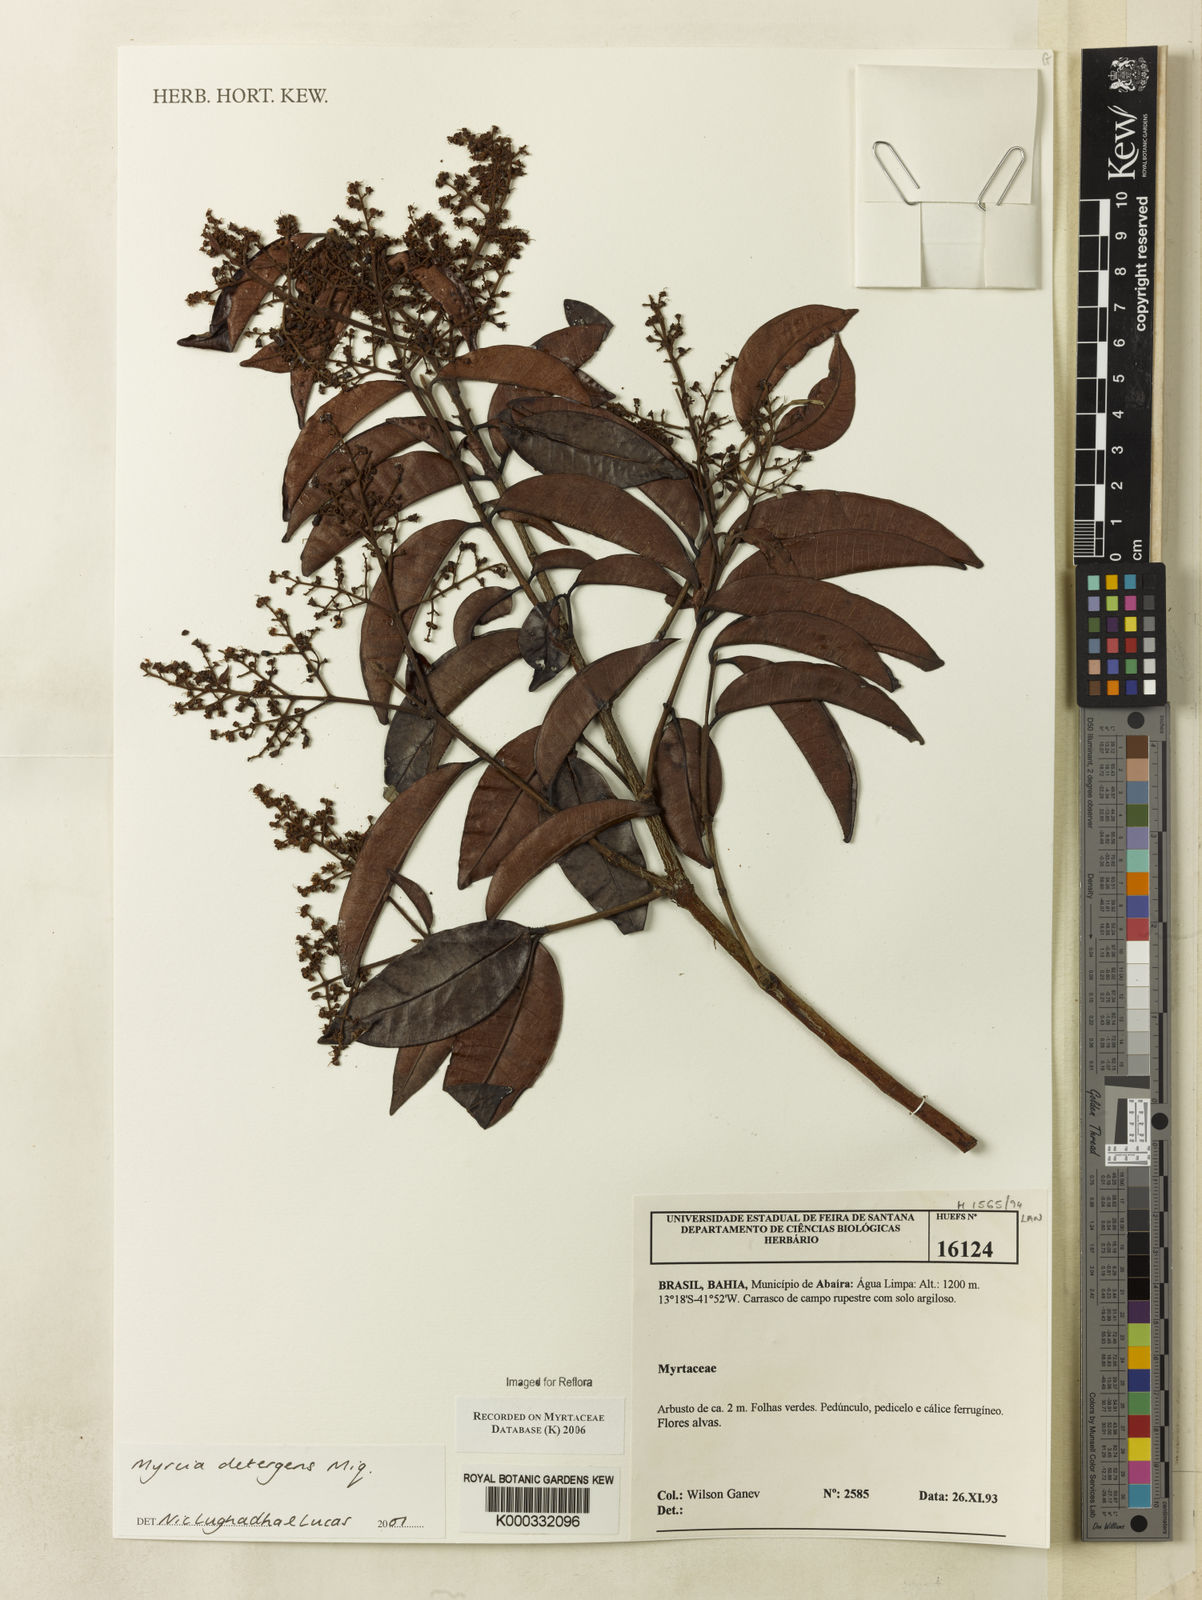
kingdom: Plantae
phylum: Tracheophyta
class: Magnoliopsida
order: Myrtales
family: Myrtaceae
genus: Myrcia
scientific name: Myrcia amazonica
